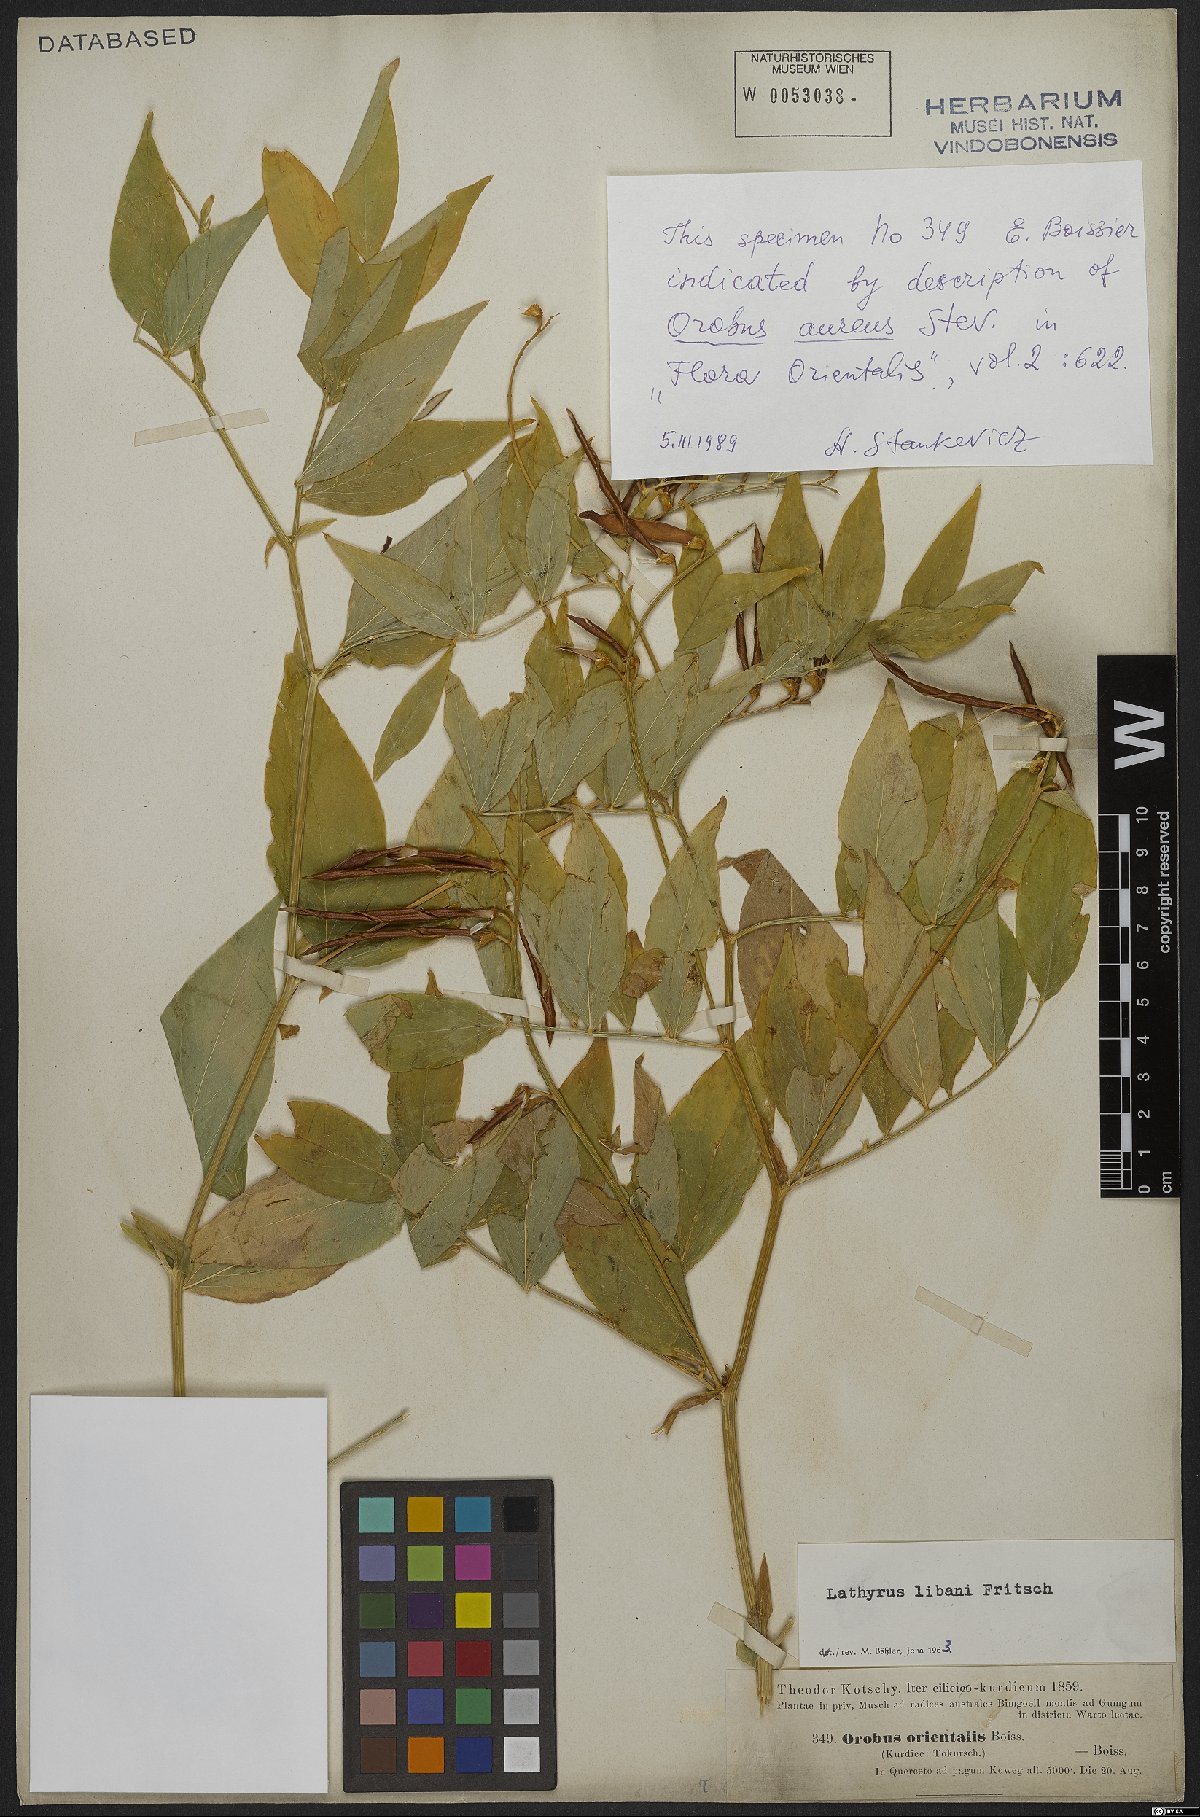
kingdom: Plantae
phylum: Tracheophyta
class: Magnoliopsida
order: Fabales
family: Fabaceae
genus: Lathyrus
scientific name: Lathyrus libani
